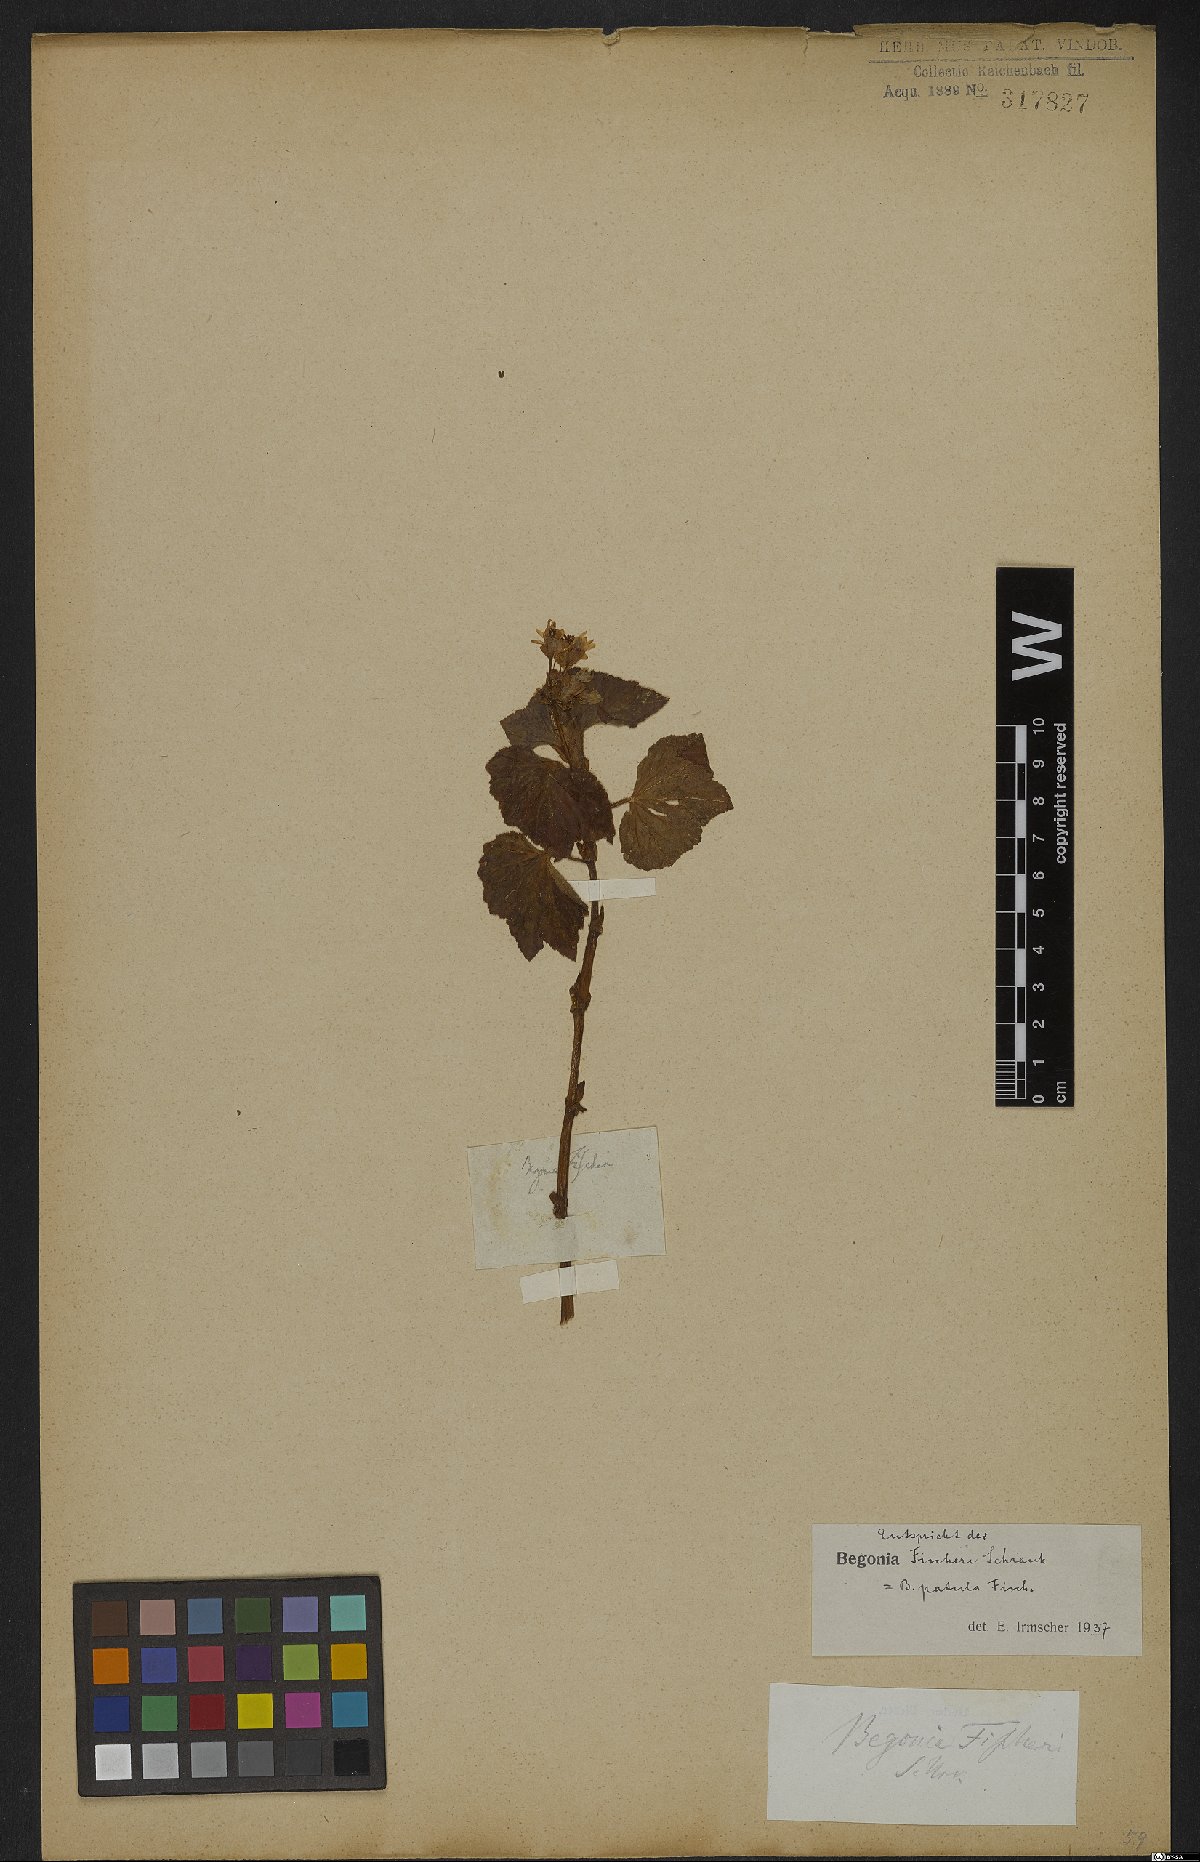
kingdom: Plantae
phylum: Tracheophyta
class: Magnoliopsida
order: Cucurbitales
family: Begoniaceae
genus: Begonia
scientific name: Begonia fischeri
